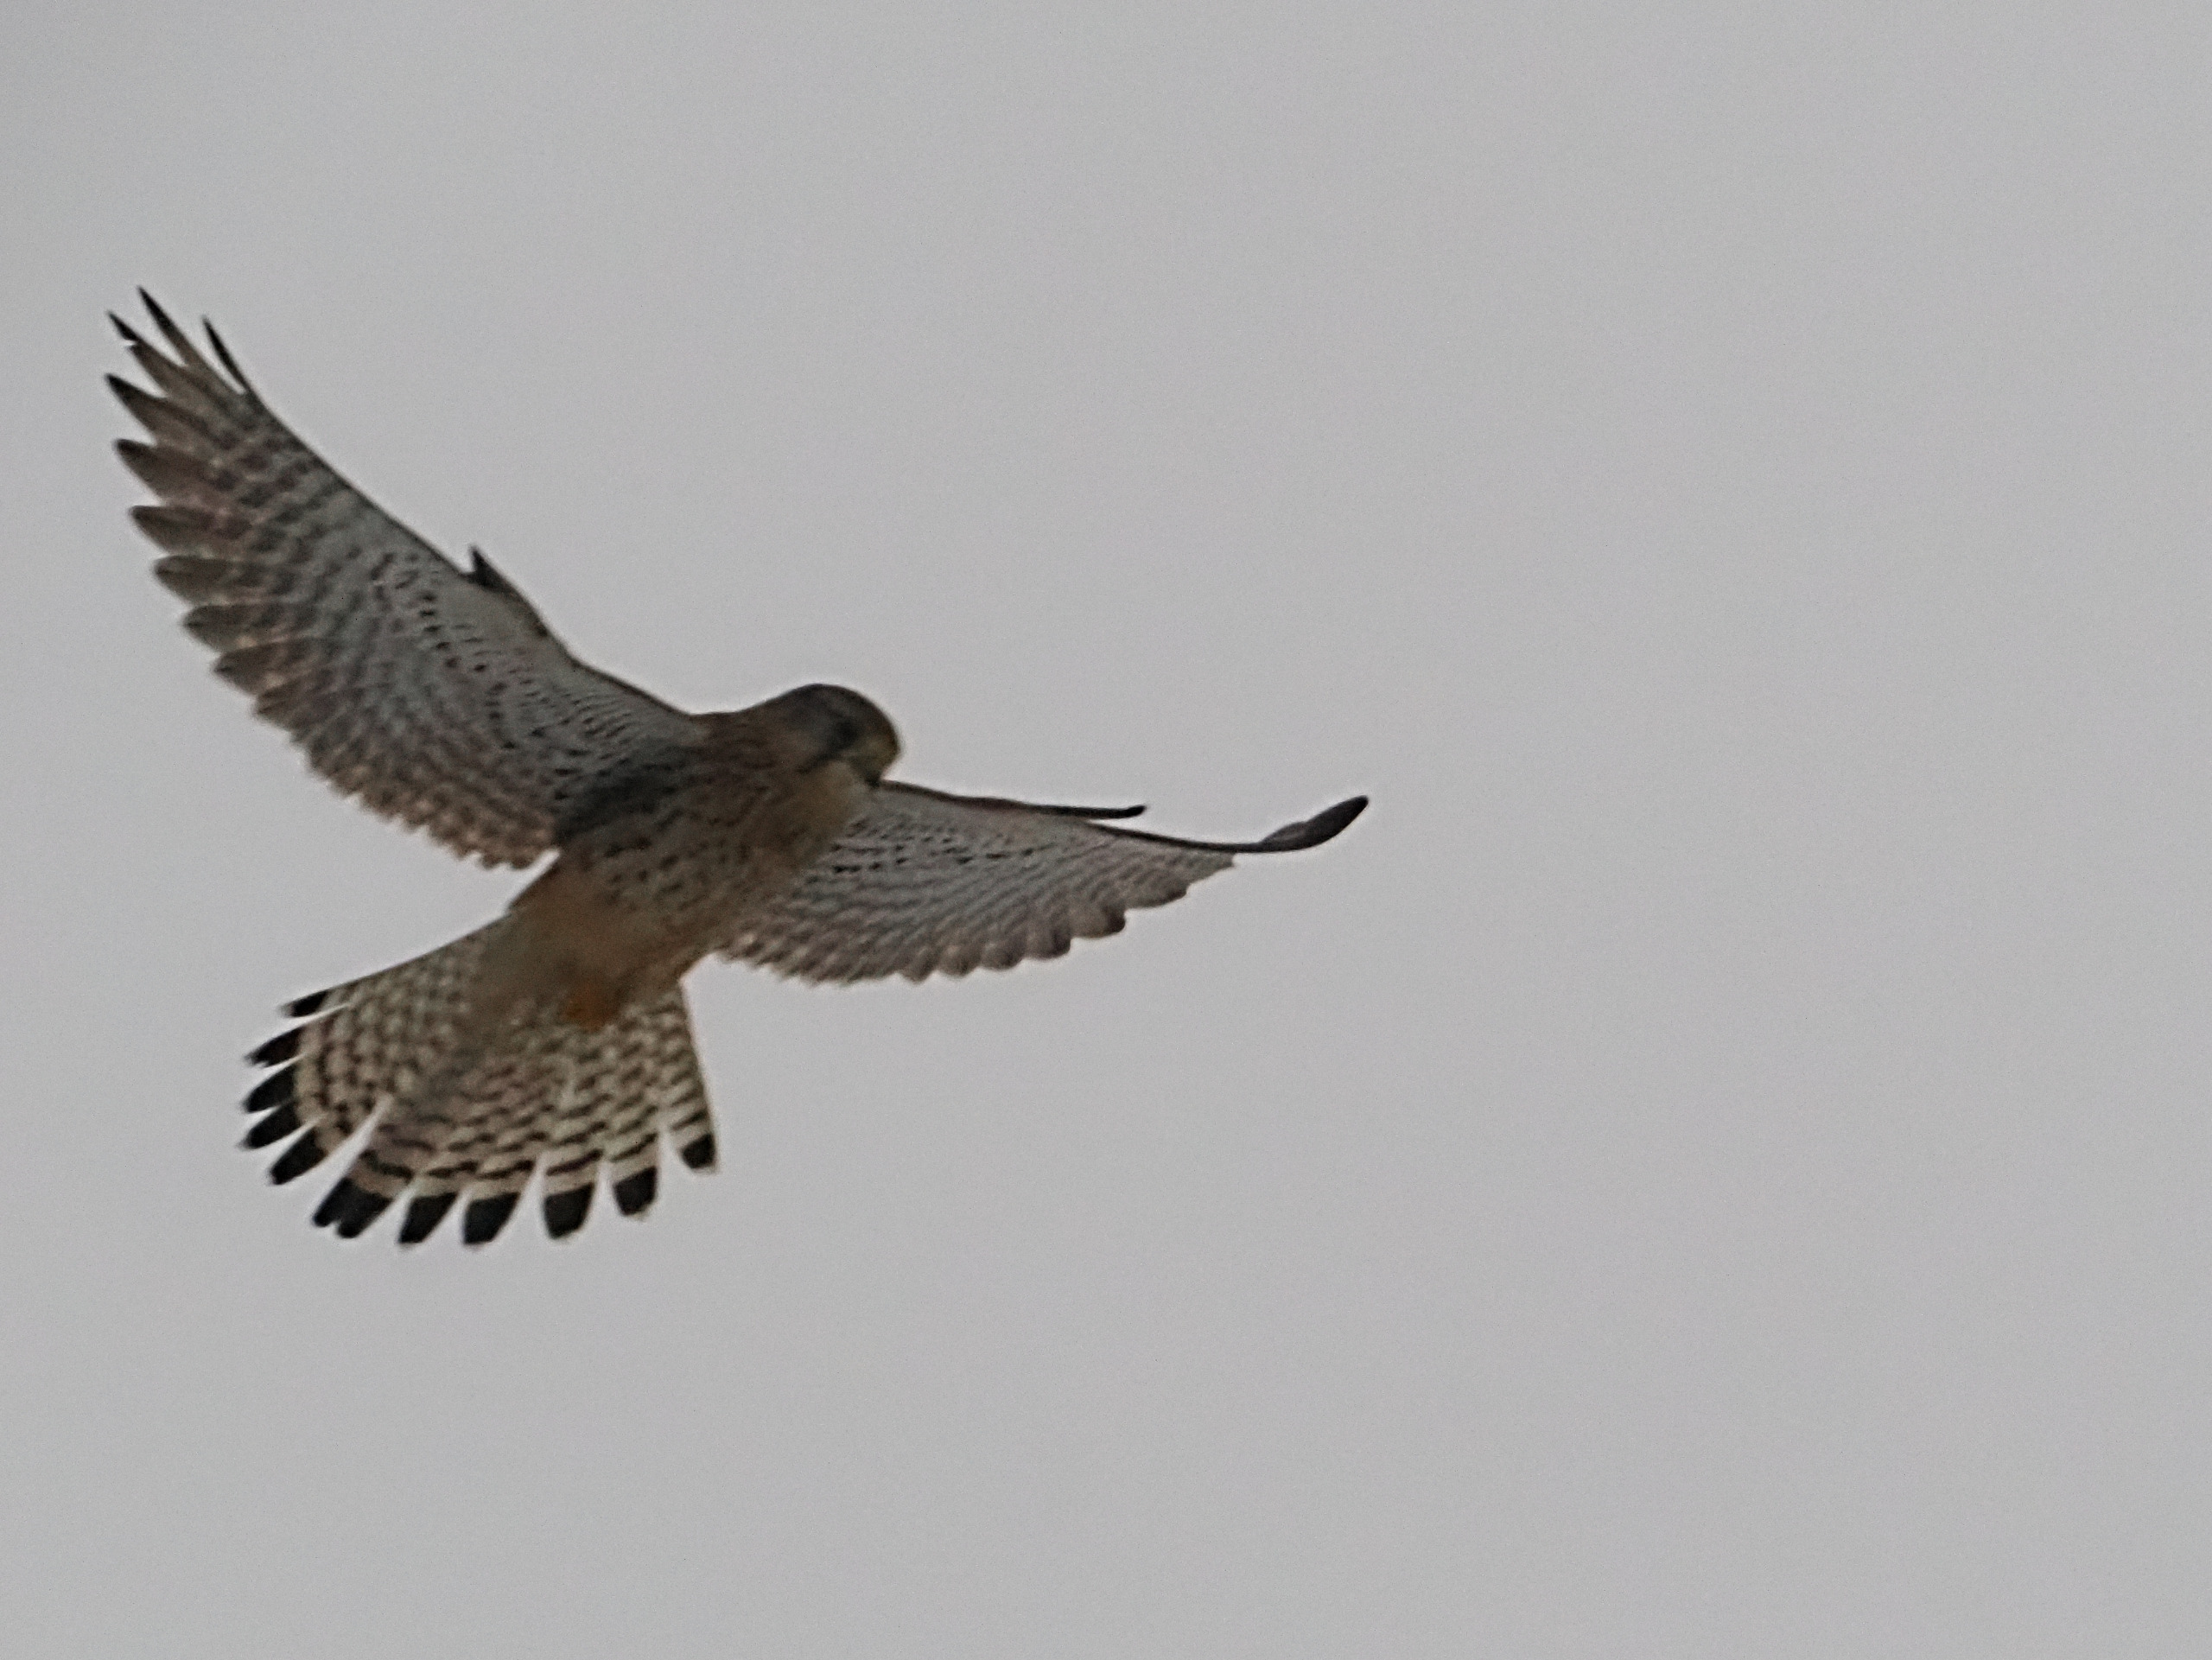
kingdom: Animalia
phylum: Chordata
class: Aves
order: Falconiformes
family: Falconidae
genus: Falco
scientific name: Falco tinnunculus
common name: Tårnfalk
